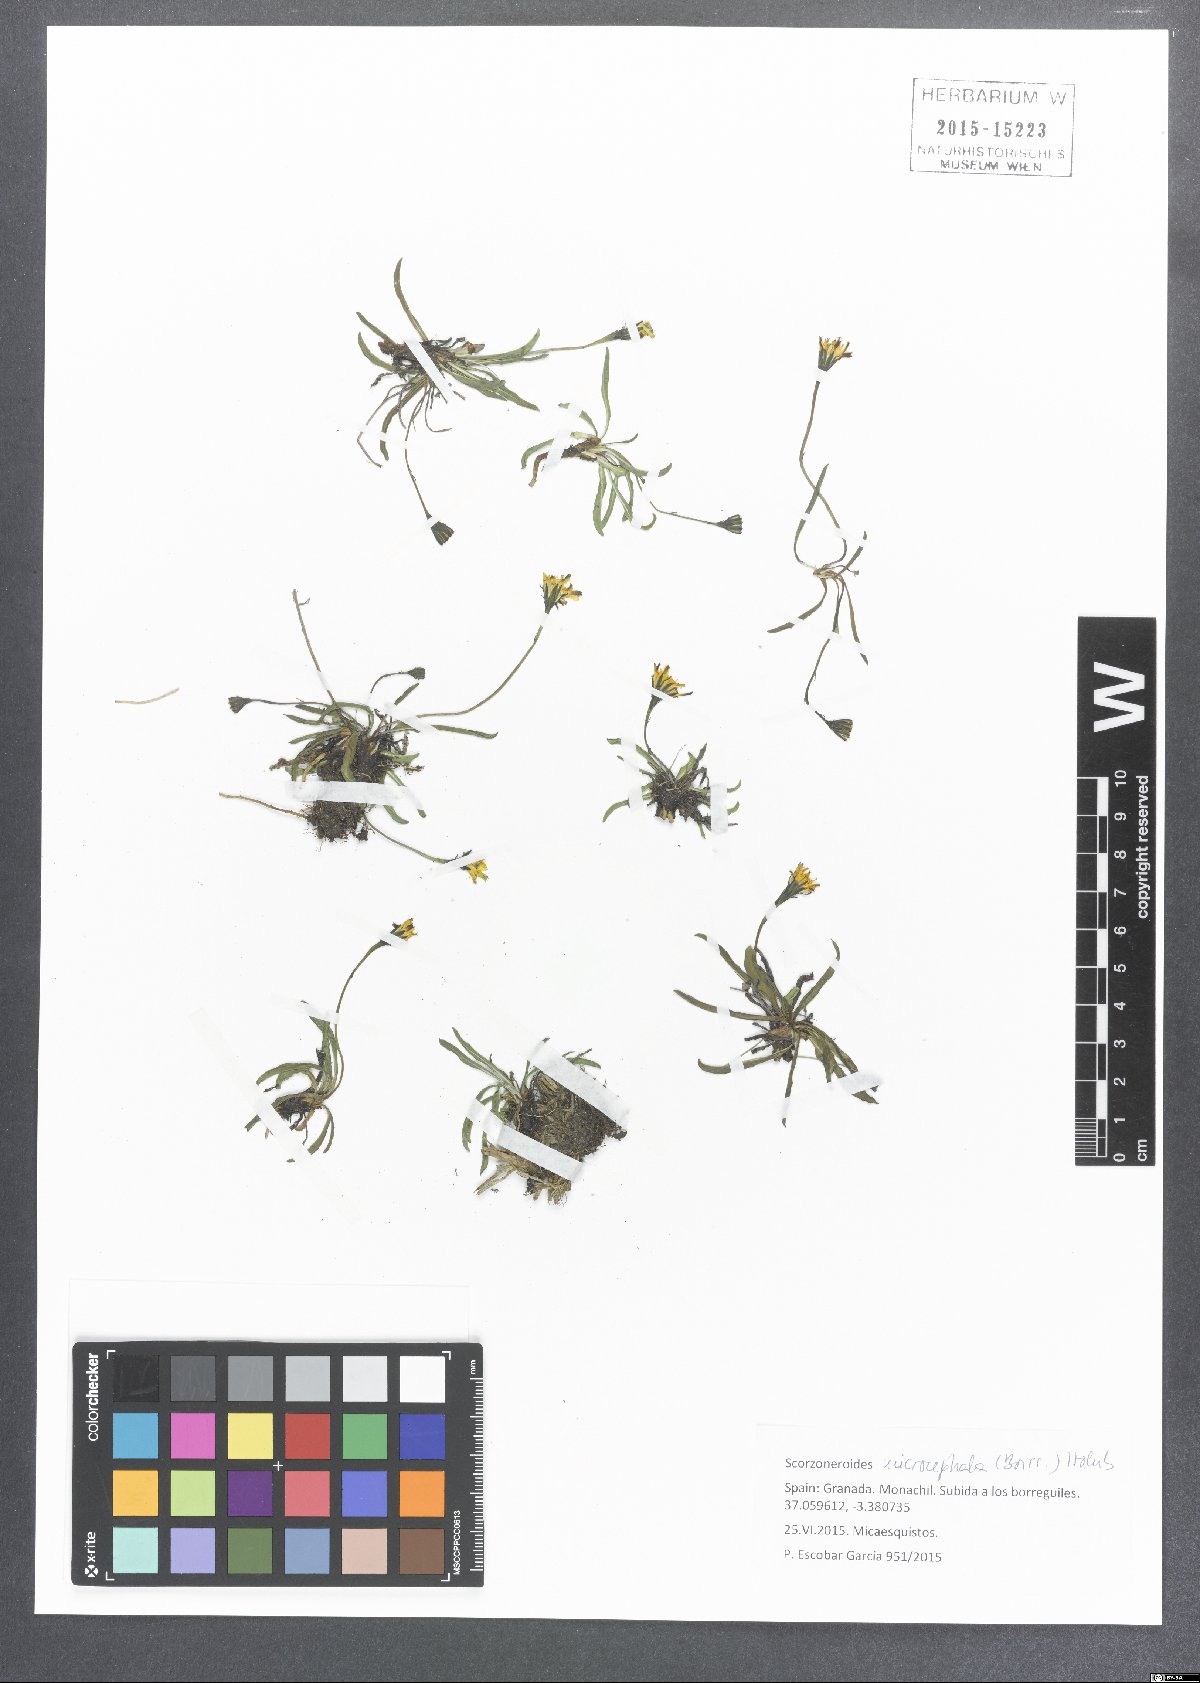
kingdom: Plantae
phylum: Tracheophyta
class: Magnoliopsida
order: Asterales
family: Asteraceae
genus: Scorzoneroides
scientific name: Scorzoneroides microcephala
